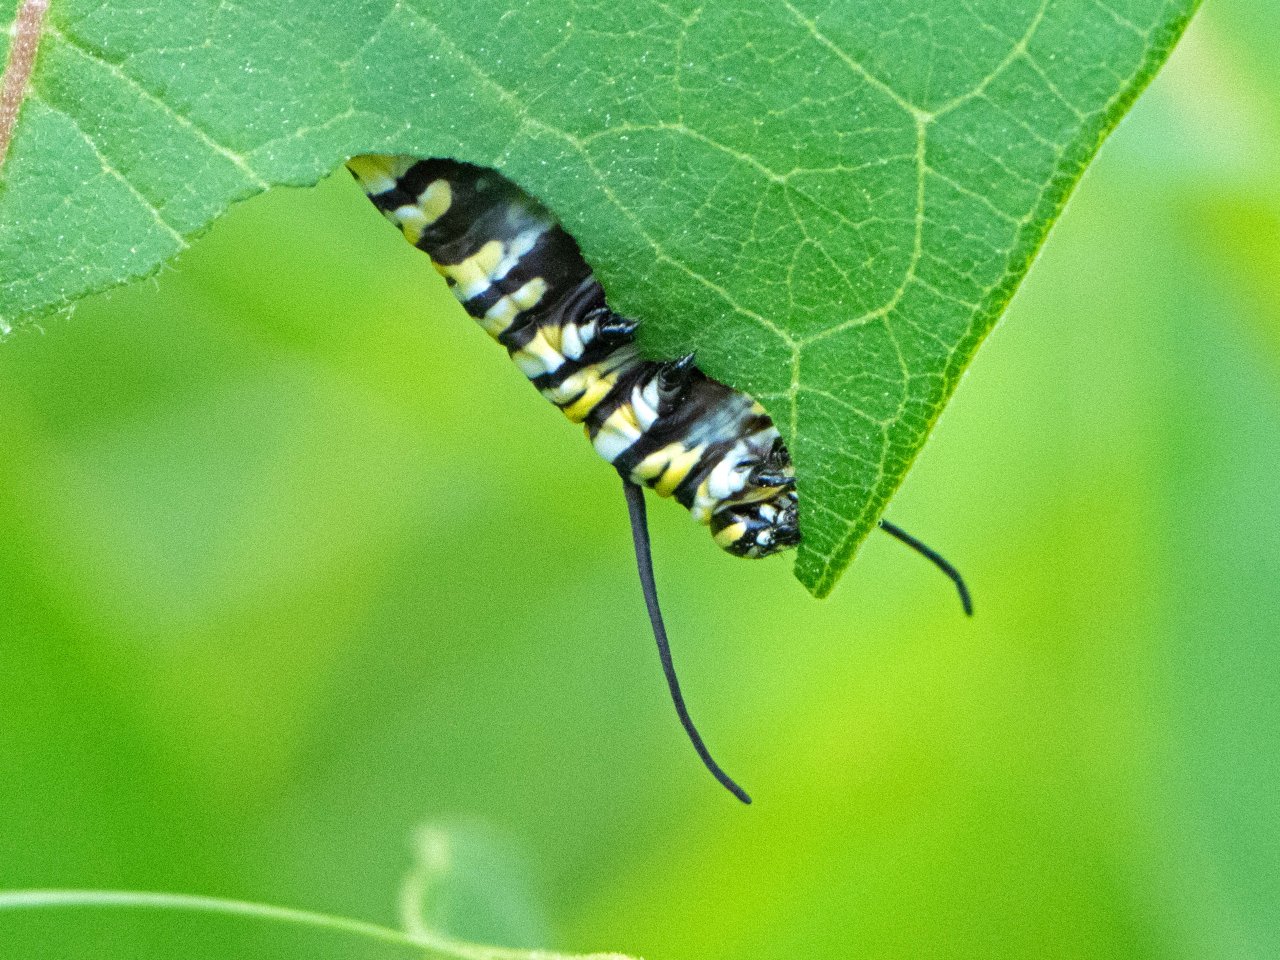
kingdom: Animalia
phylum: Arthropoda
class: Insecta
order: Lepidoptera
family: Nymphalidae
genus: Danaus
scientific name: Danaus plexippus
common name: Monarch
